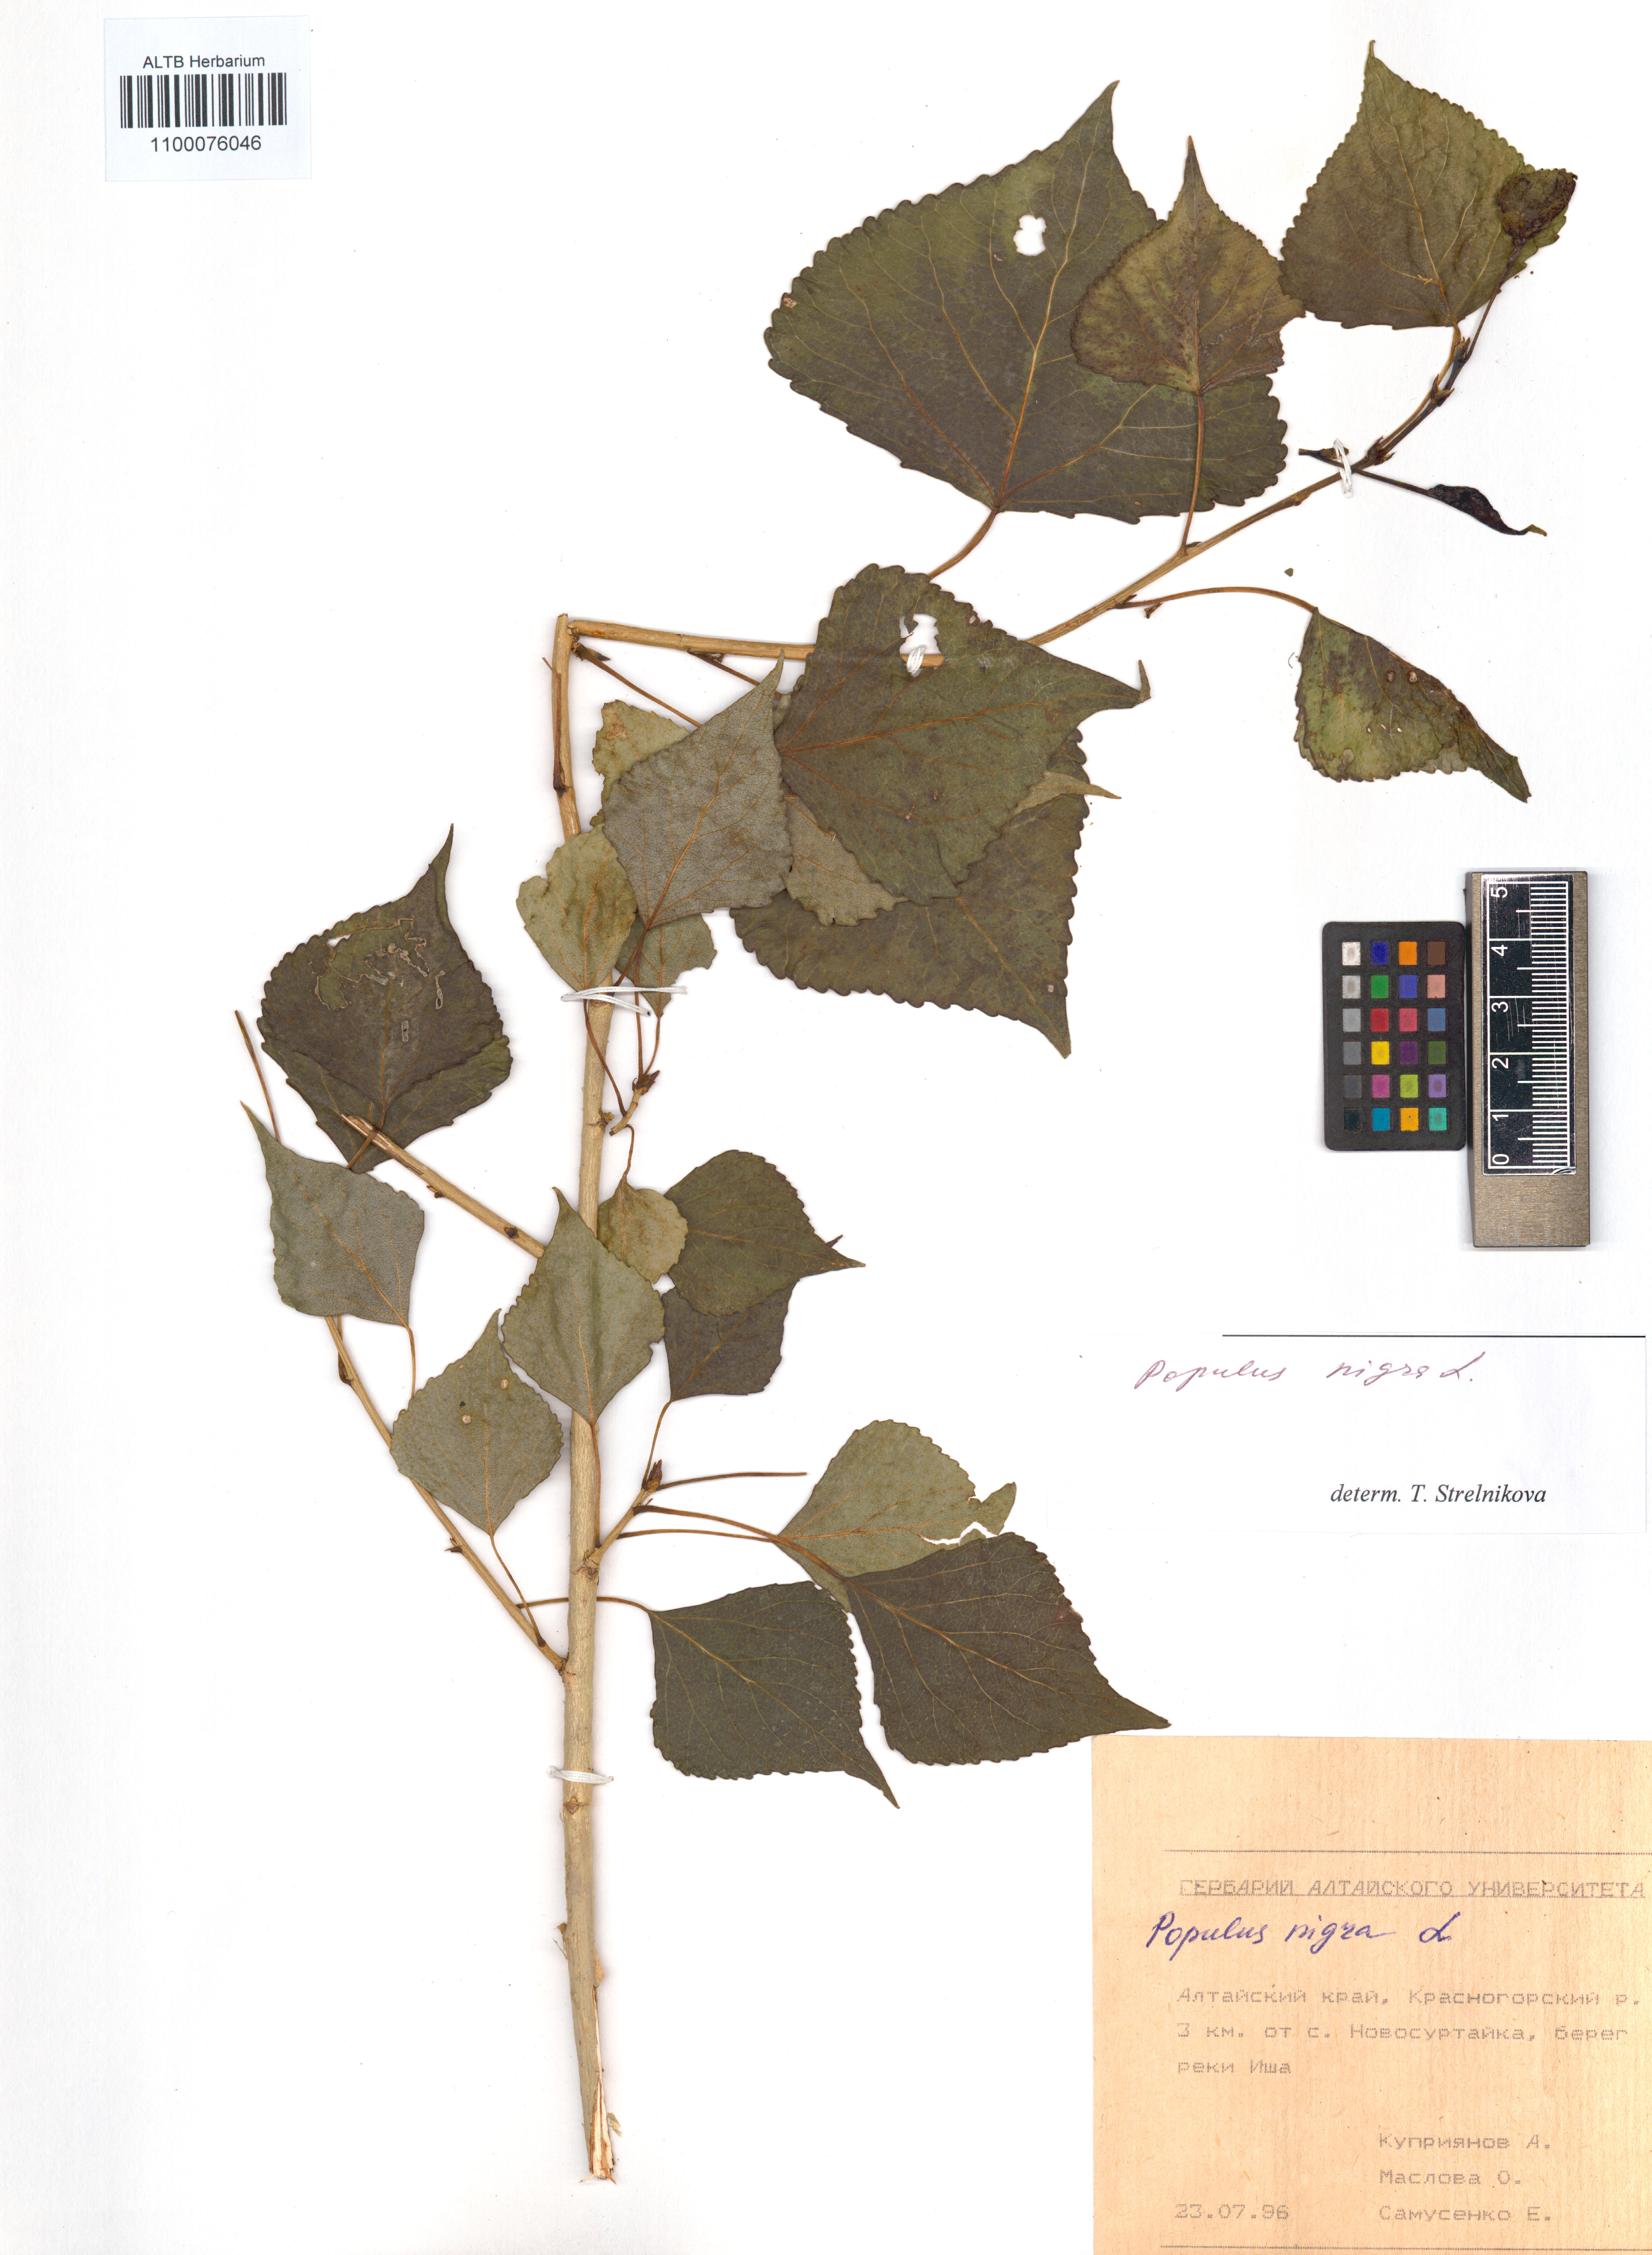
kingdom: Plantae
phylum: Tracheophyta
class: Magnoliopsida
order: Malpighiales
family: Salicaceae
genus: Populus
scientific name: Populus nigra
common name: Black poplar
